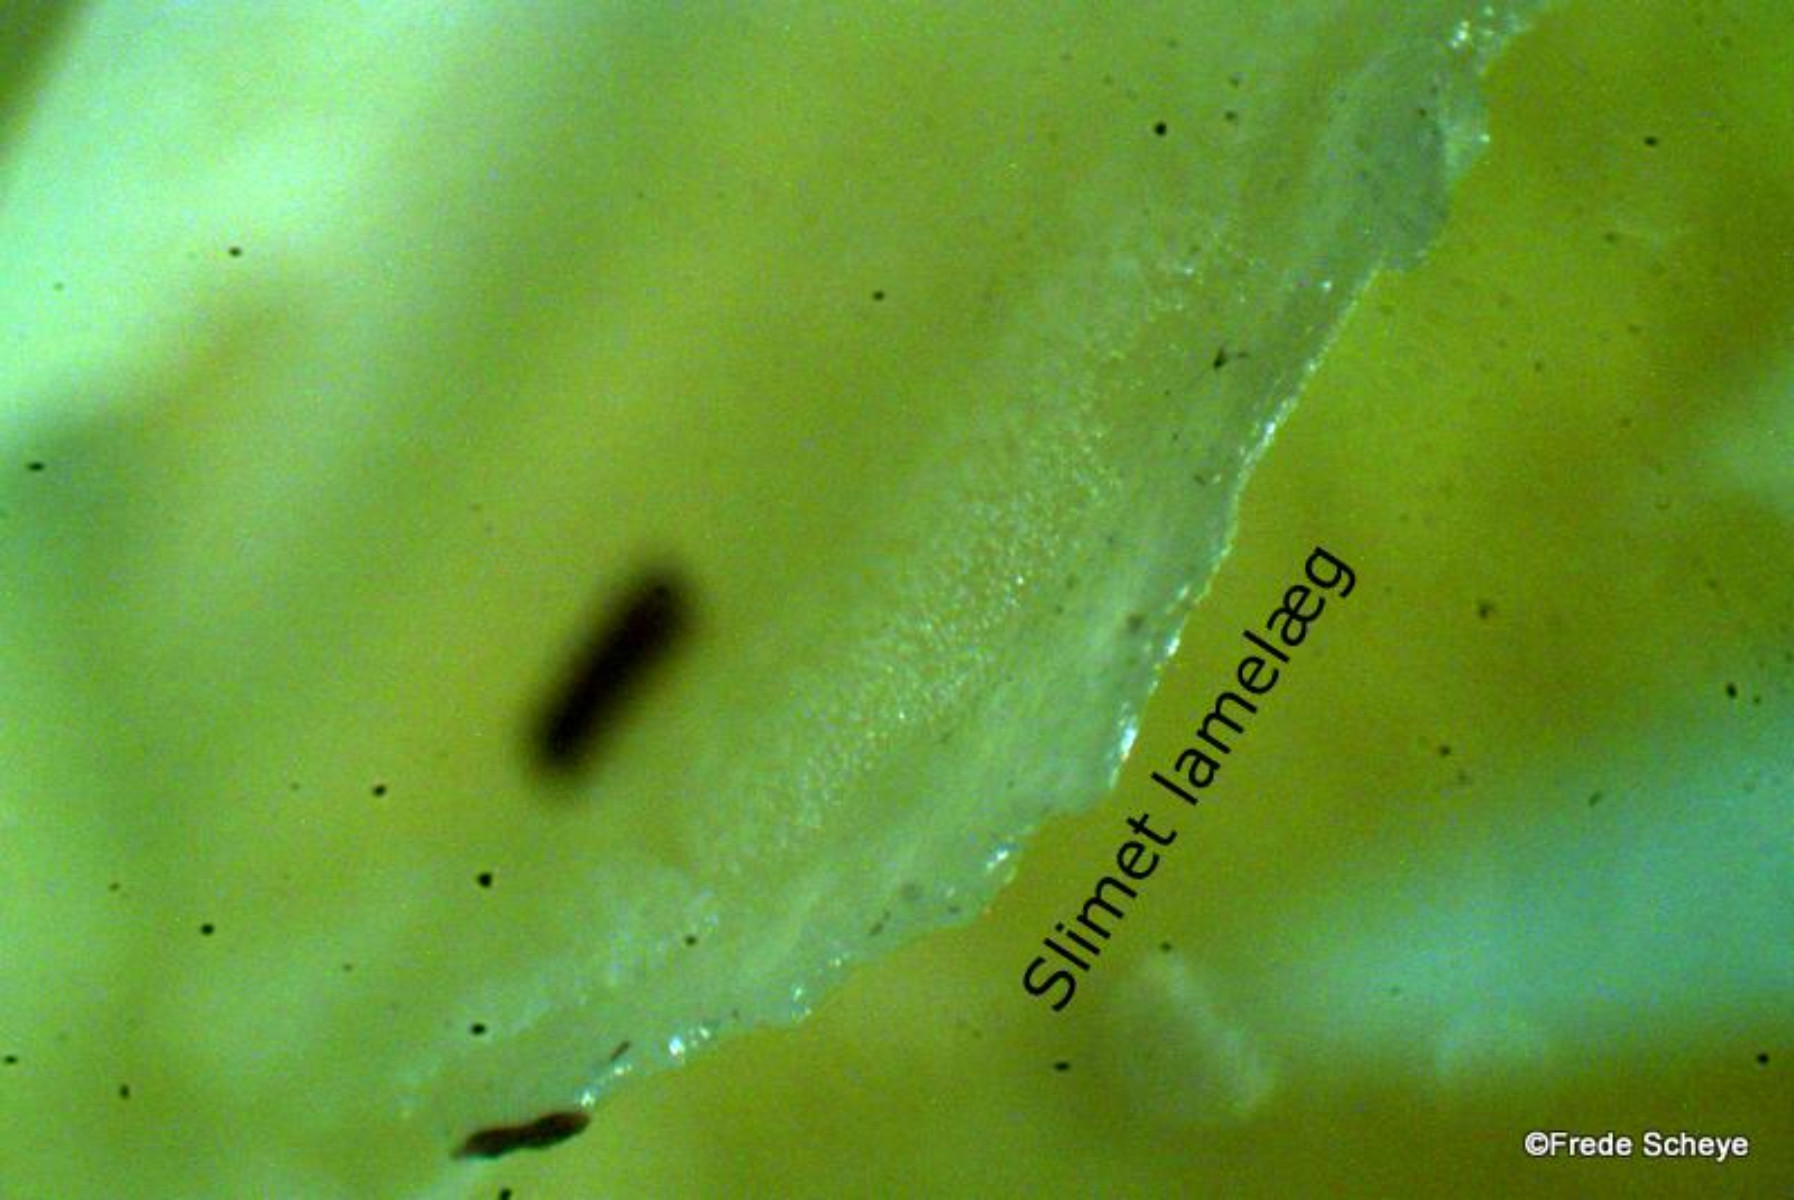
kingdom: Fungi
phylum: Basidiomycota
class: Agaricomycetes
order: Agaricales
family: Hygrophoraceae
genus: Hygrocybe
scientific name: Hygrocybe ceracea
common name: voksgul vokshat
